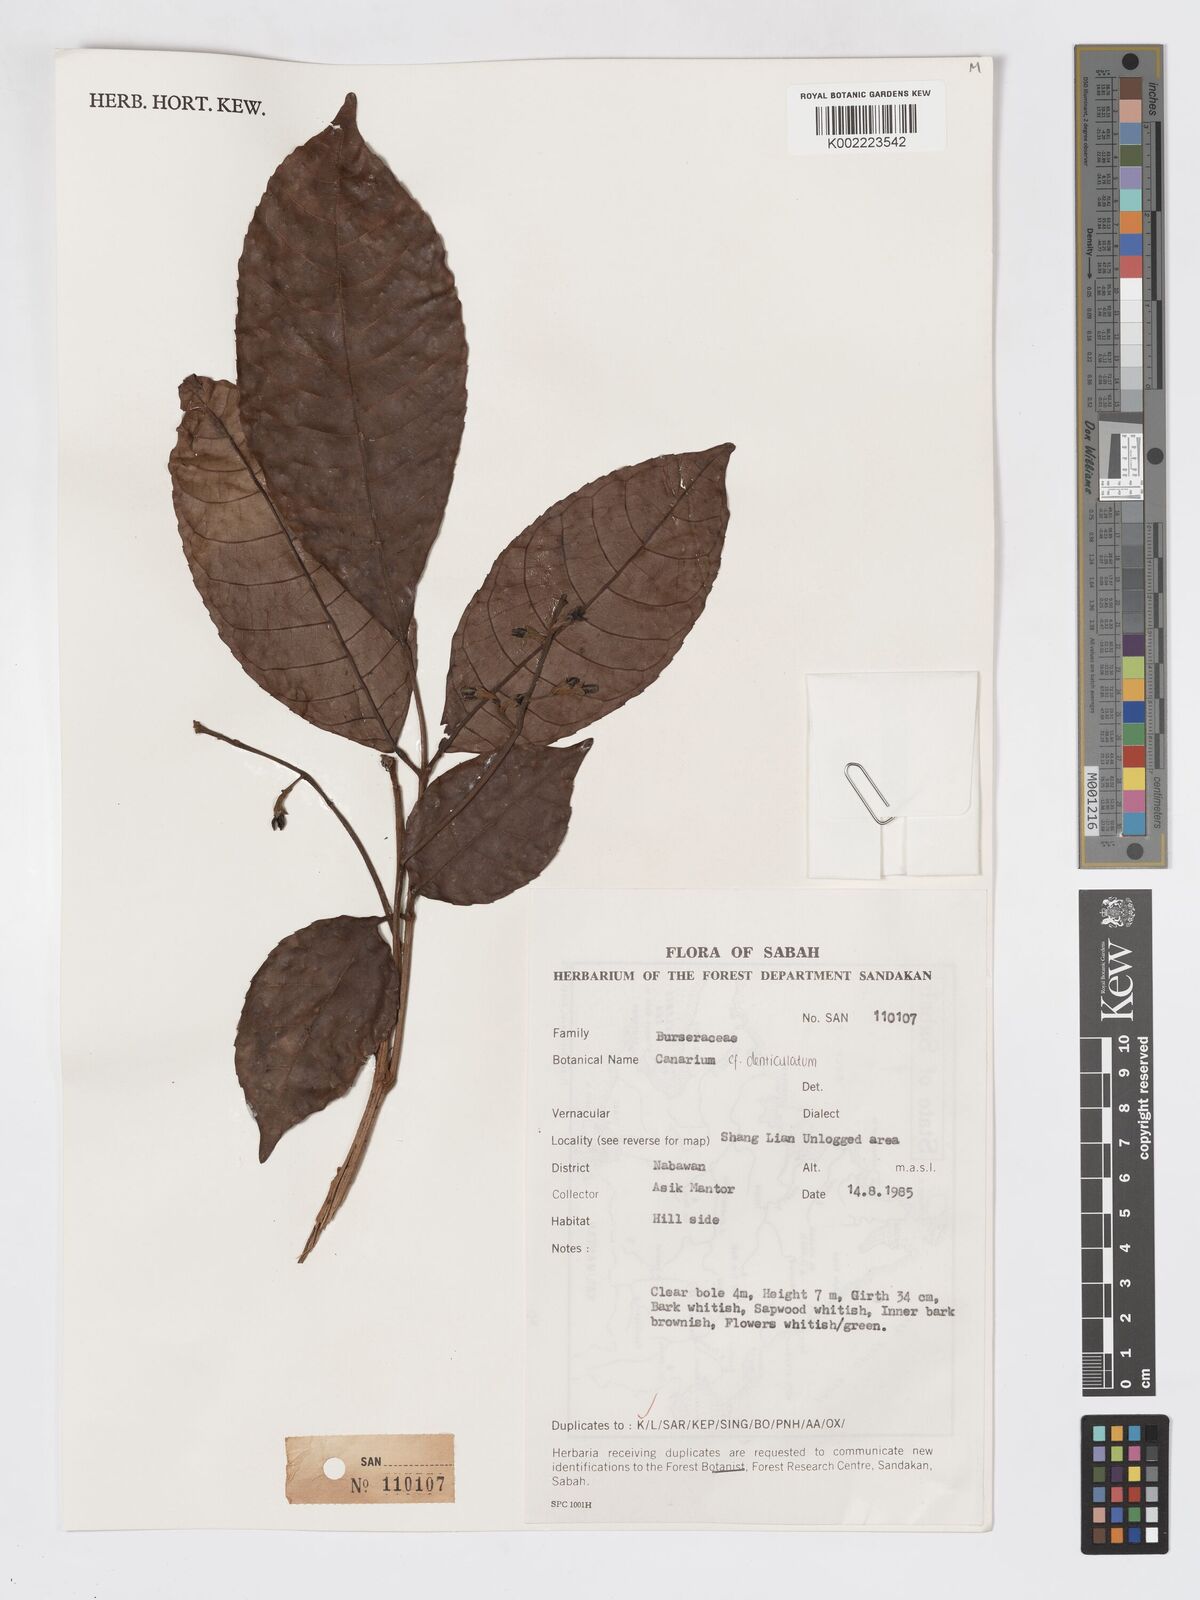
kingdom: Plantae
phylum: Tracheophyta
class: Magnoliopsida
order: Sapindales
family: Burseraceae
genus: Canarium
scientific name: Canarium denticulatum
